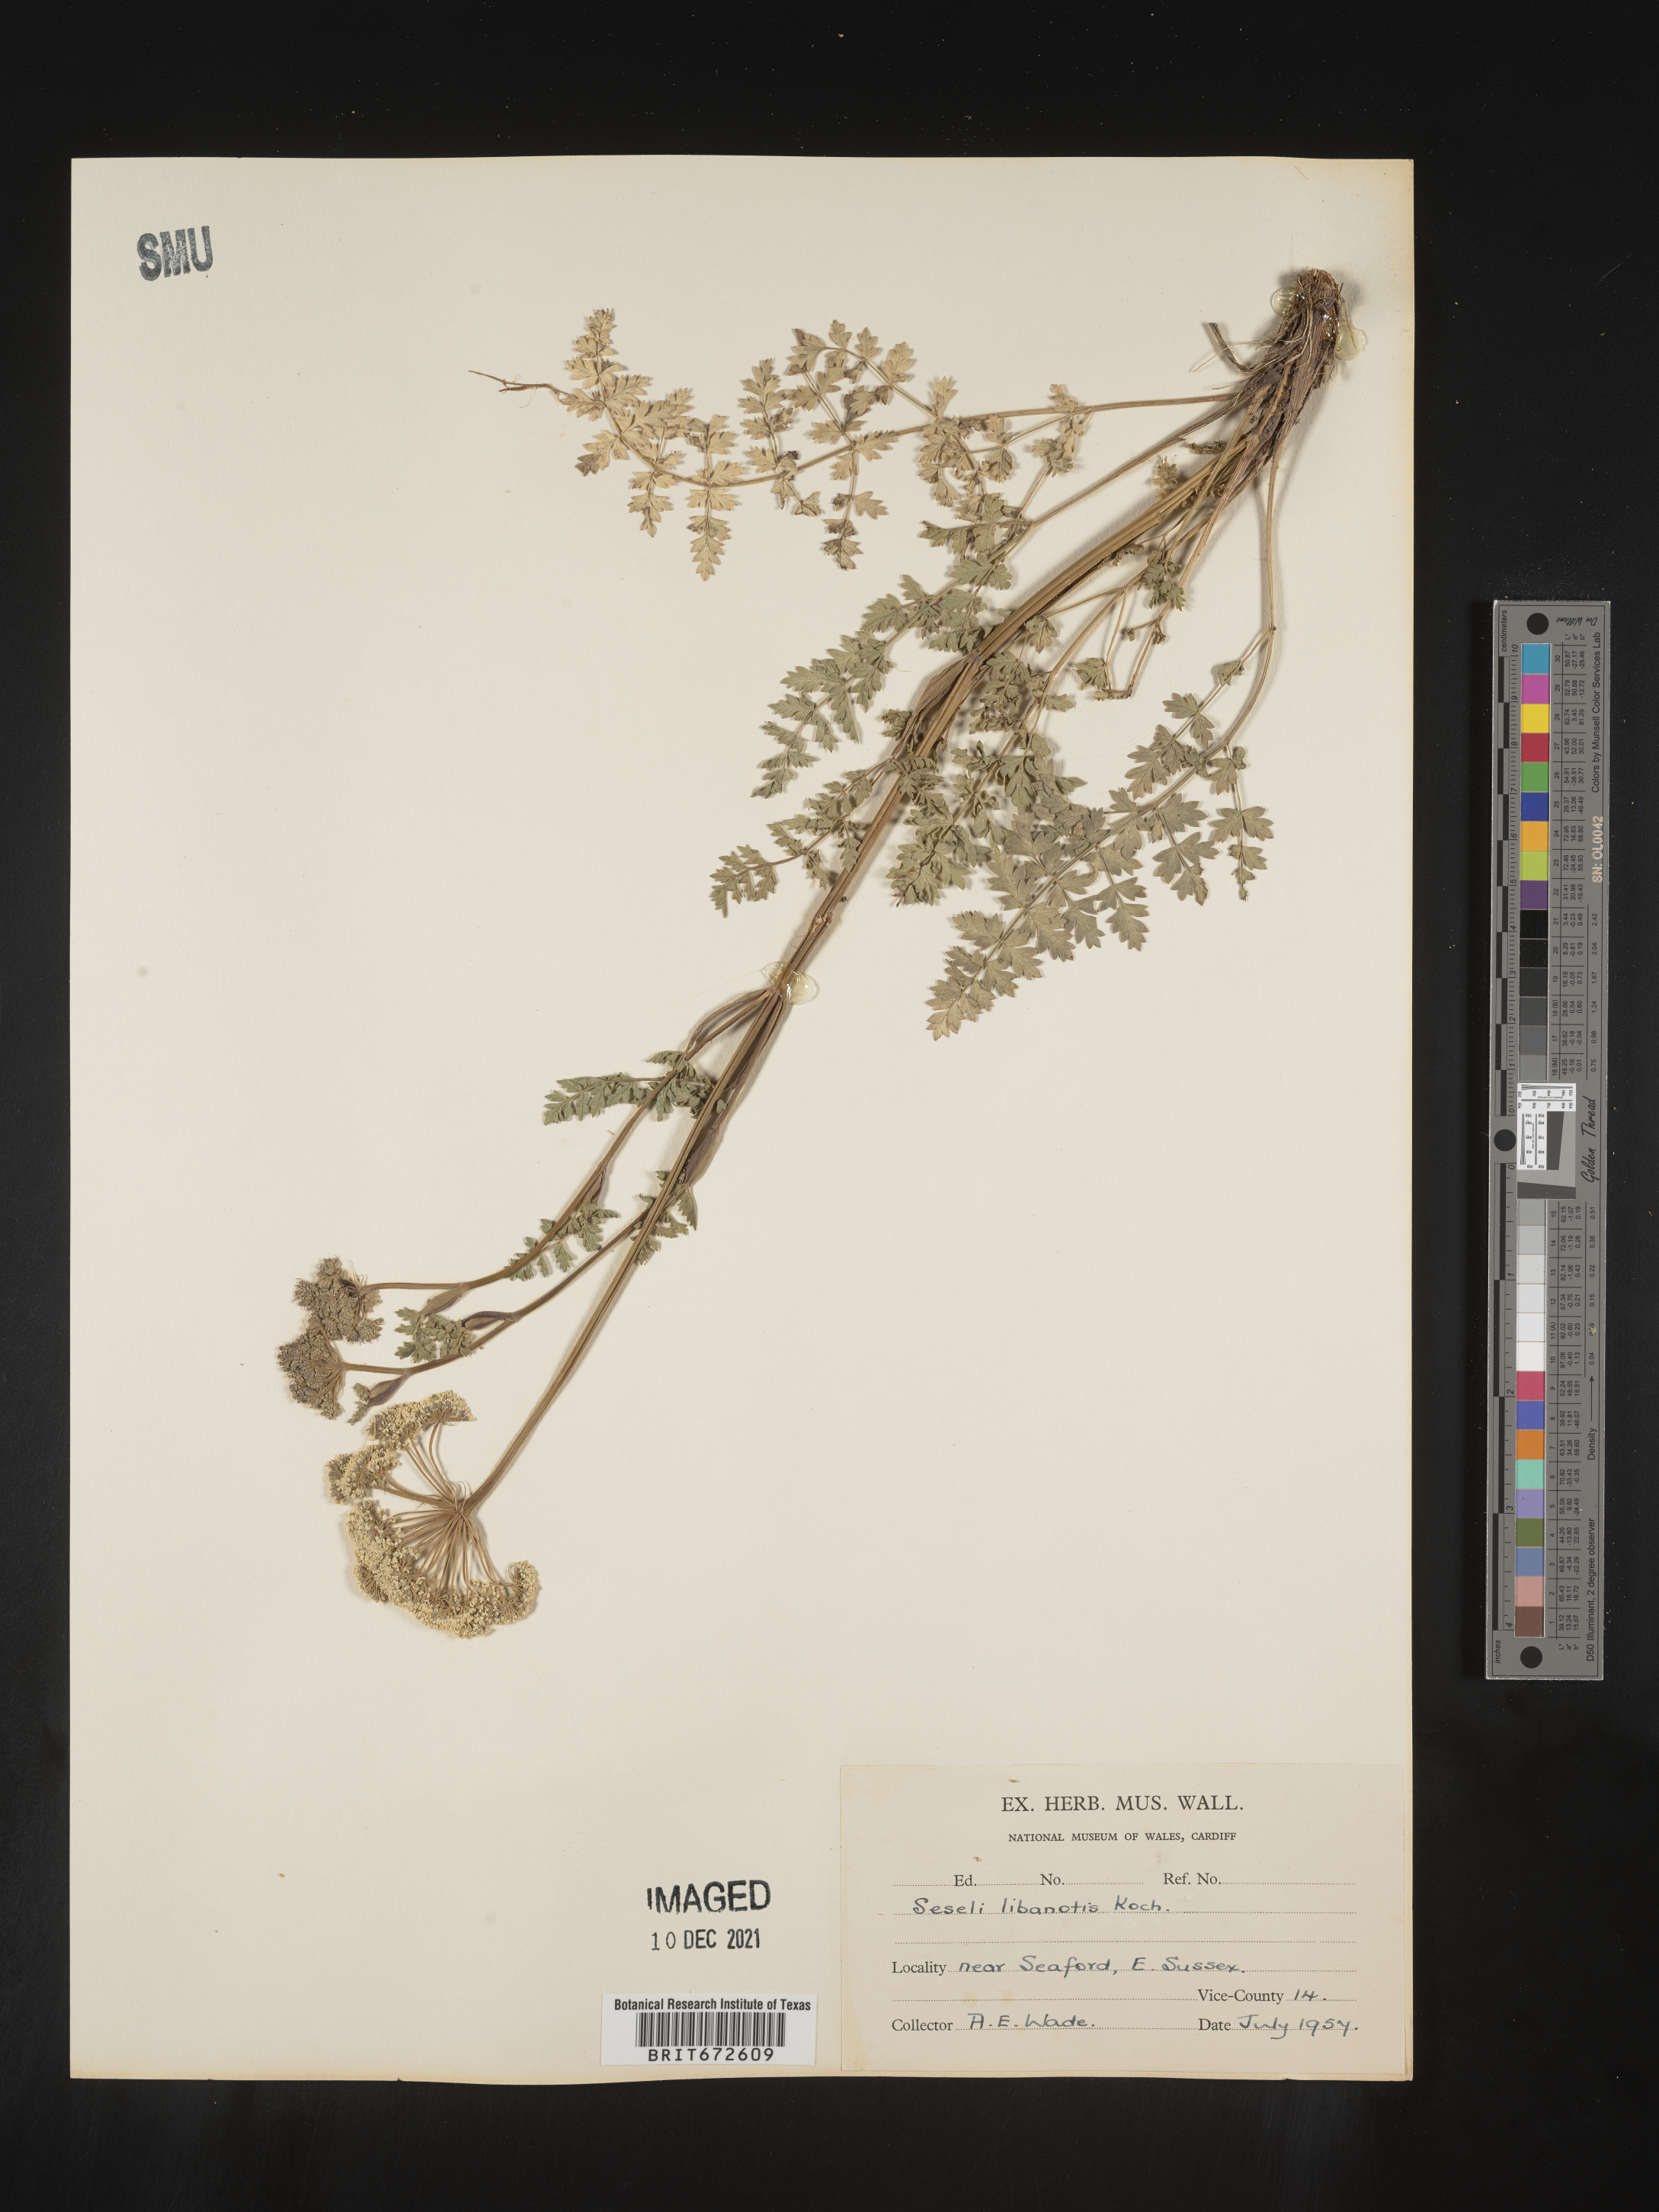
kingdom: Plantae
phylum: Tracheophyta
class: Magnoliopsida
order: Apiales
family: Apiaceae
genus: Seseli
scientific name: Seseli
